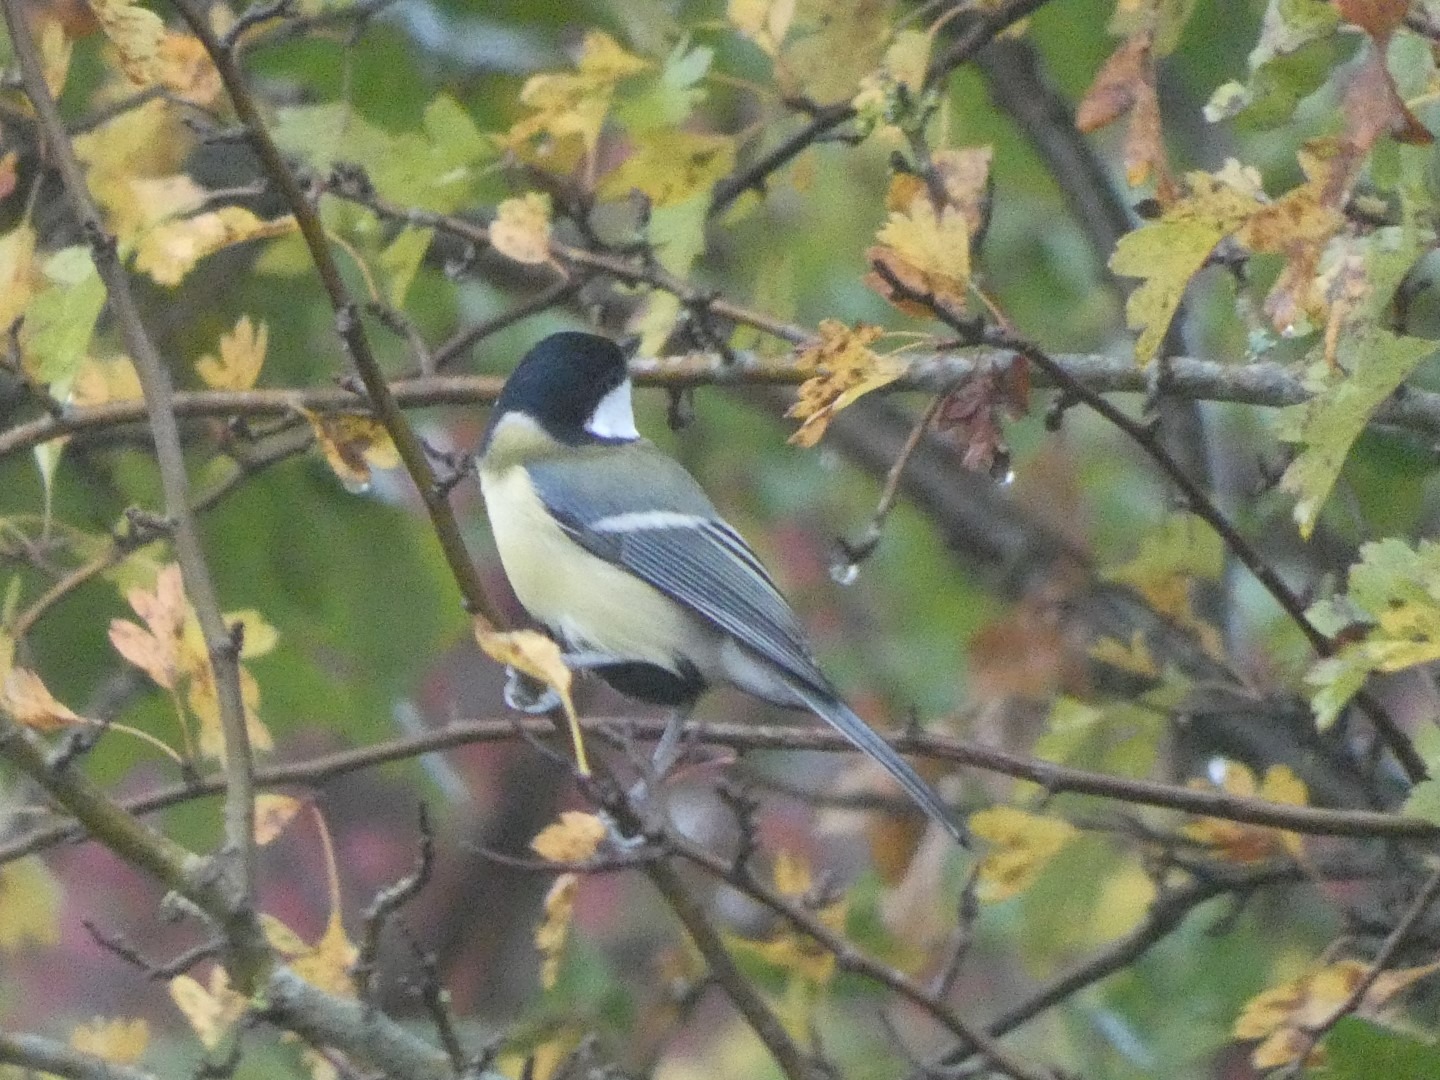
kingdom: Animalia
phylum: Chordata
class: Aves
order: Passeriformes
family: Paridae
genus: Parus
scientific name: Parus major
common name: Musvit
